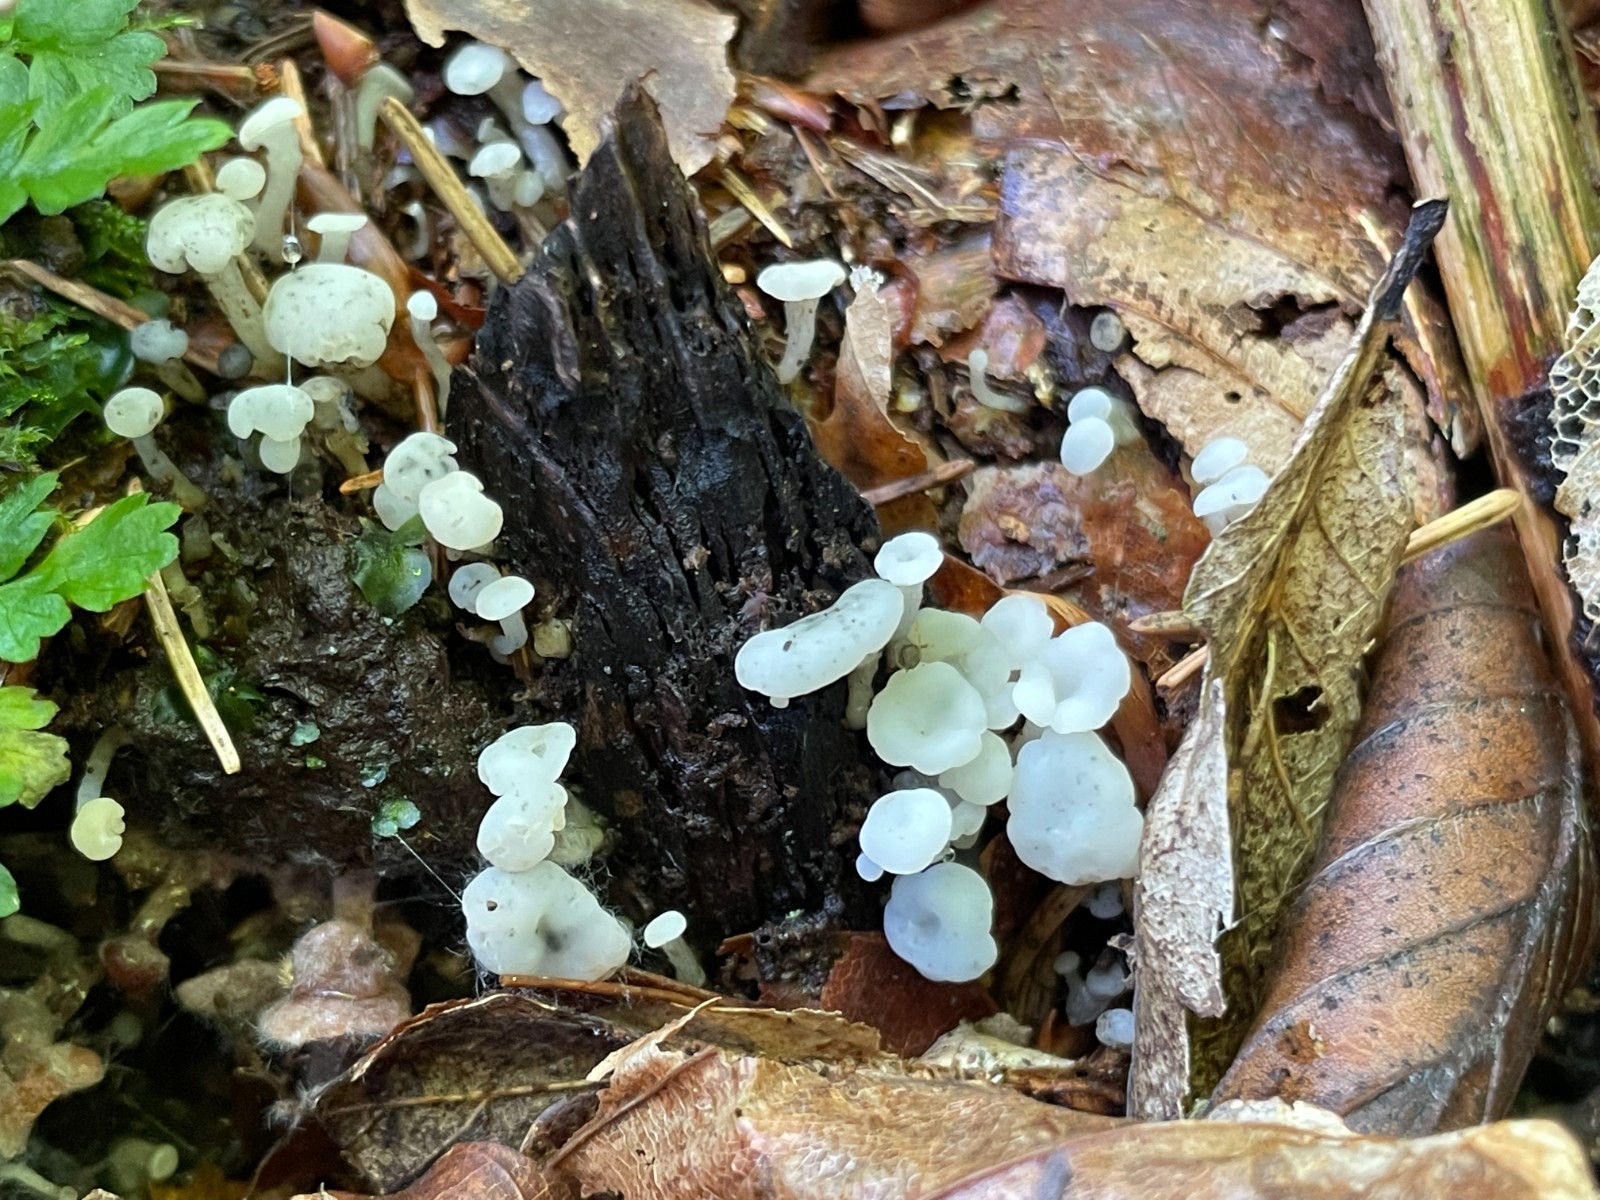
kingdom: Fungi
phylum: Ascomycota
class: Leotiomycetes
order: Helotiales
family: Tricladiaceae
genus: Cudoniella
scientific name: Cudoniella acicularis
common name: ege-dyndskive
